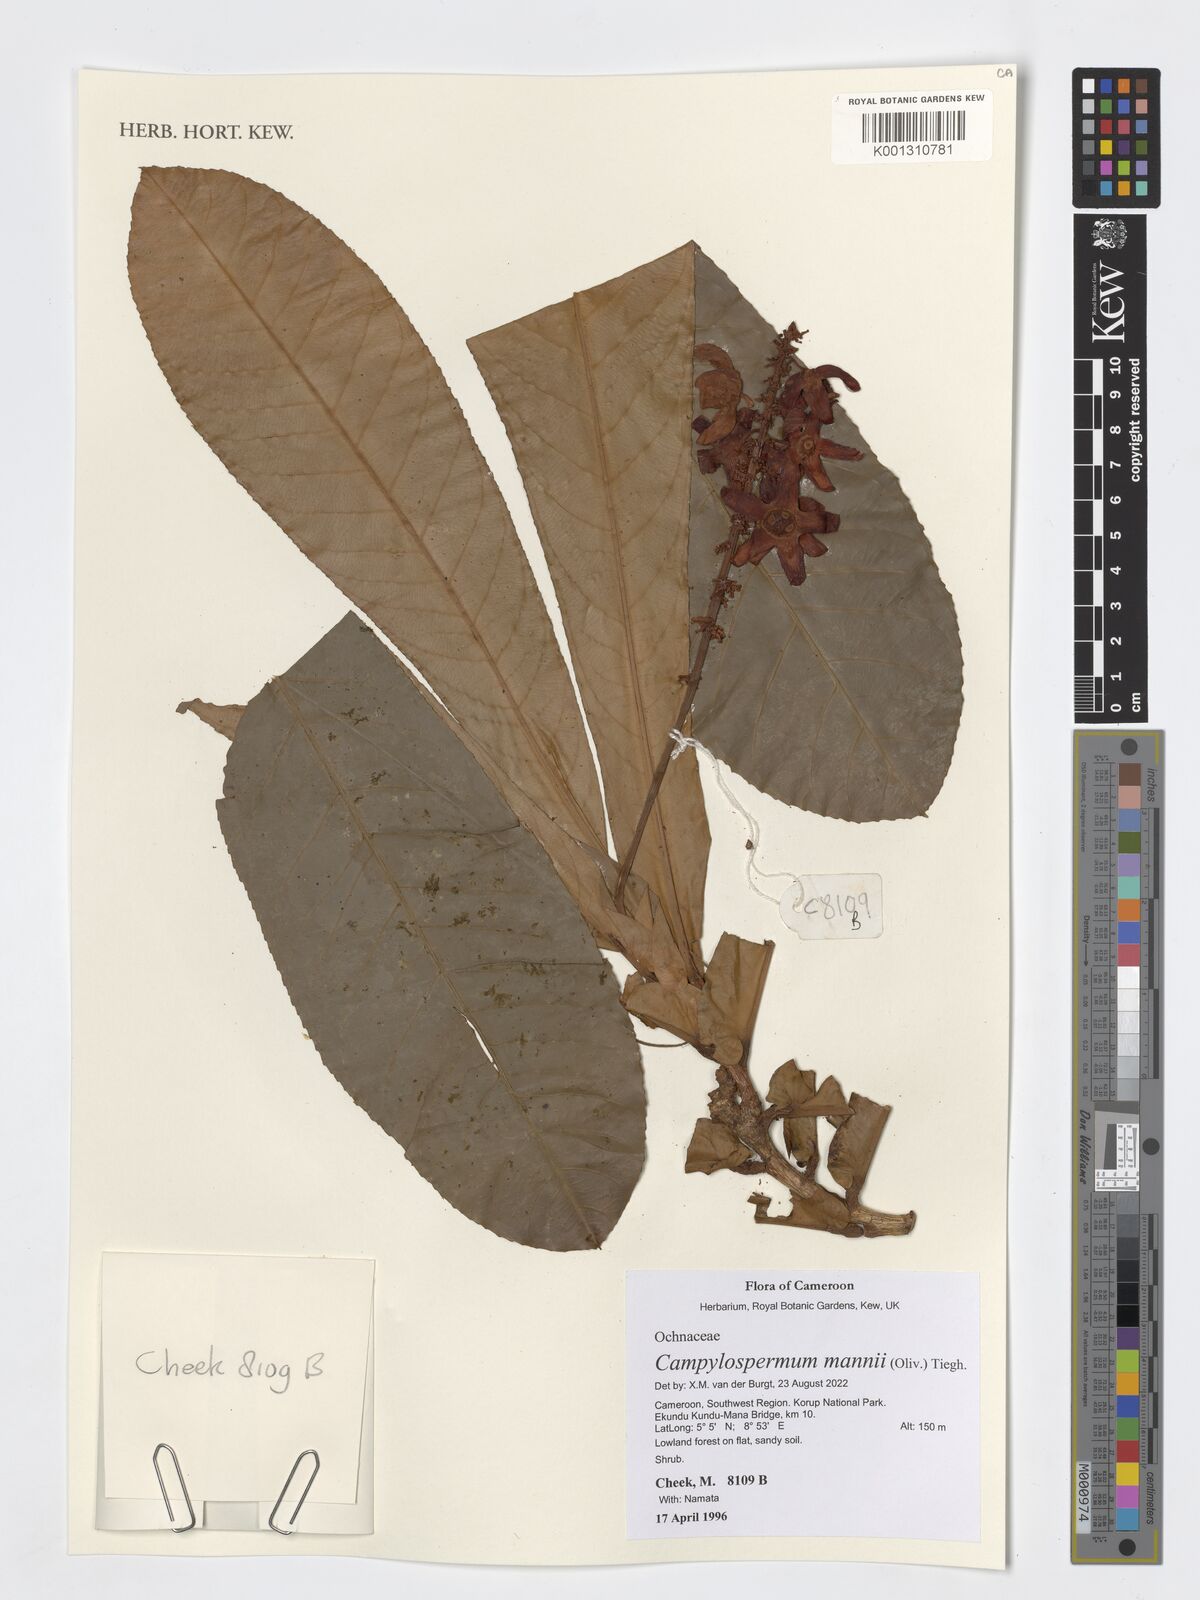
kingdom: Plantae
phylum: Tracheophyta
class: Magnoliopsida
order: Malpighiales
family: Ochnaceae
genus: Campylospermum
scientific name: Campylospermum mannii
